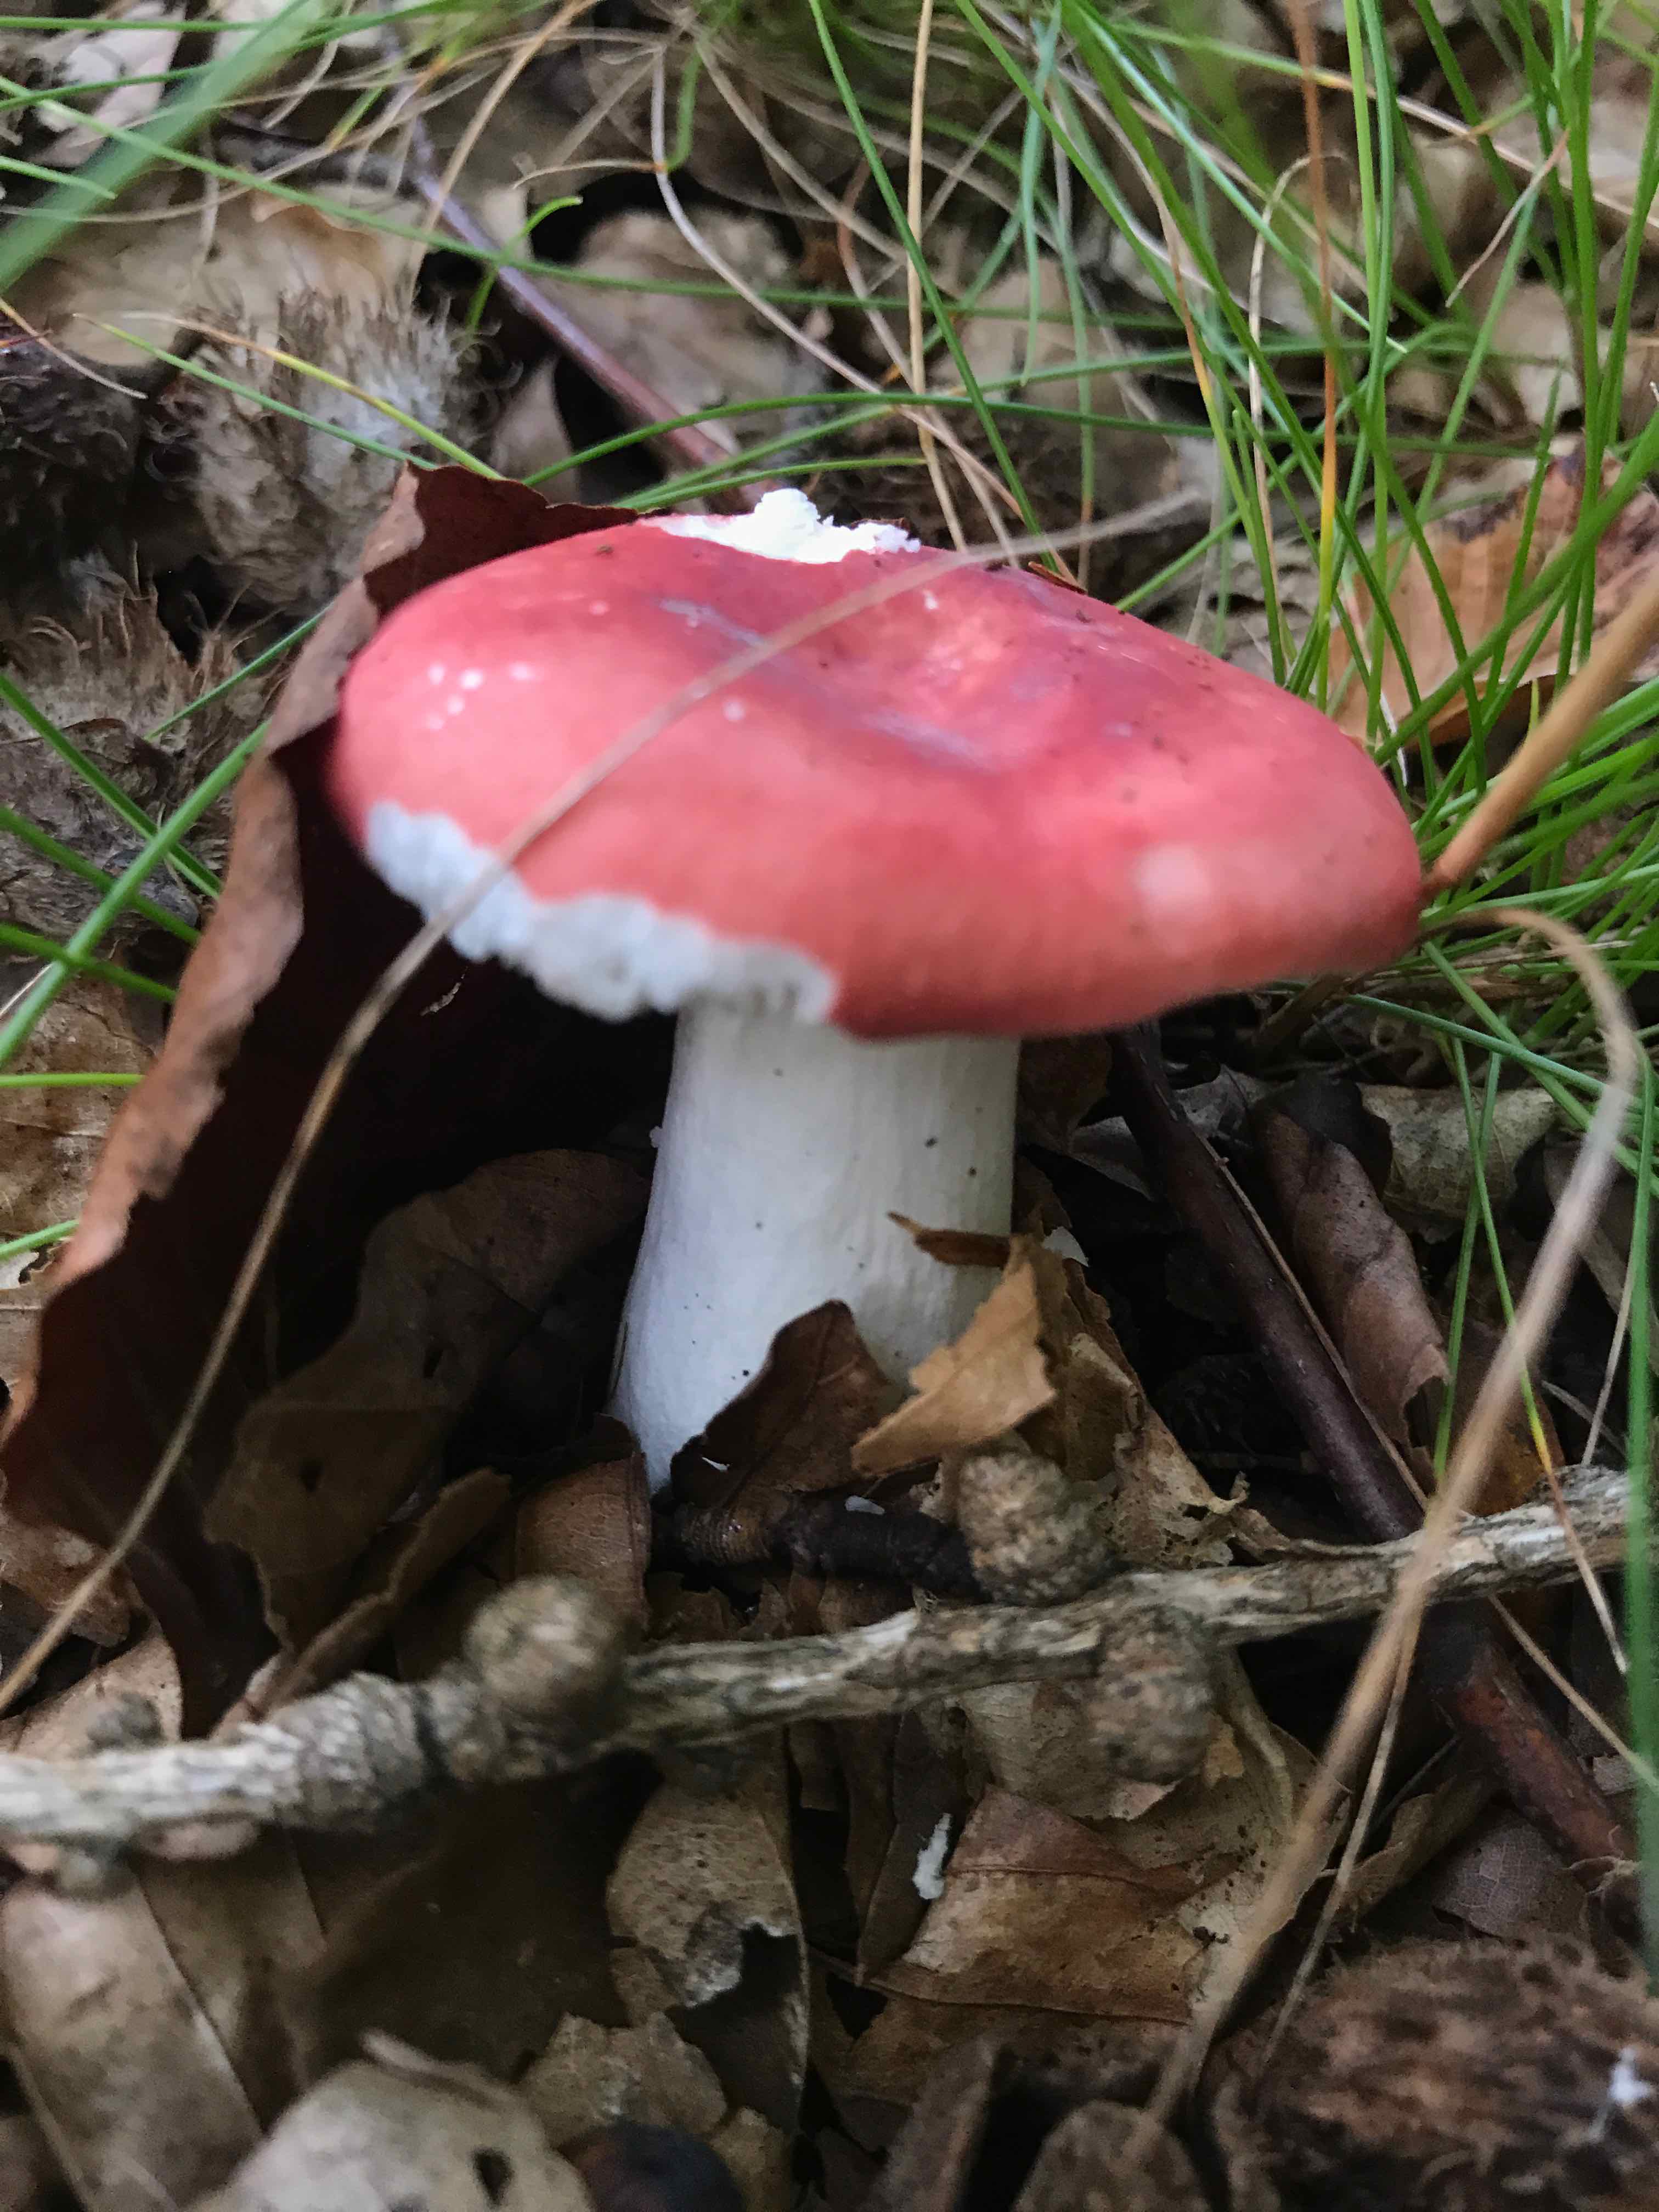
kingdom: Fungi
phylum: Basidiomycota
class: Agaricomycetes
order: Russulales
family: Russulaceae
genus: Russula
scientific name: Russula nobilis
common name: lille gift-skørhat
